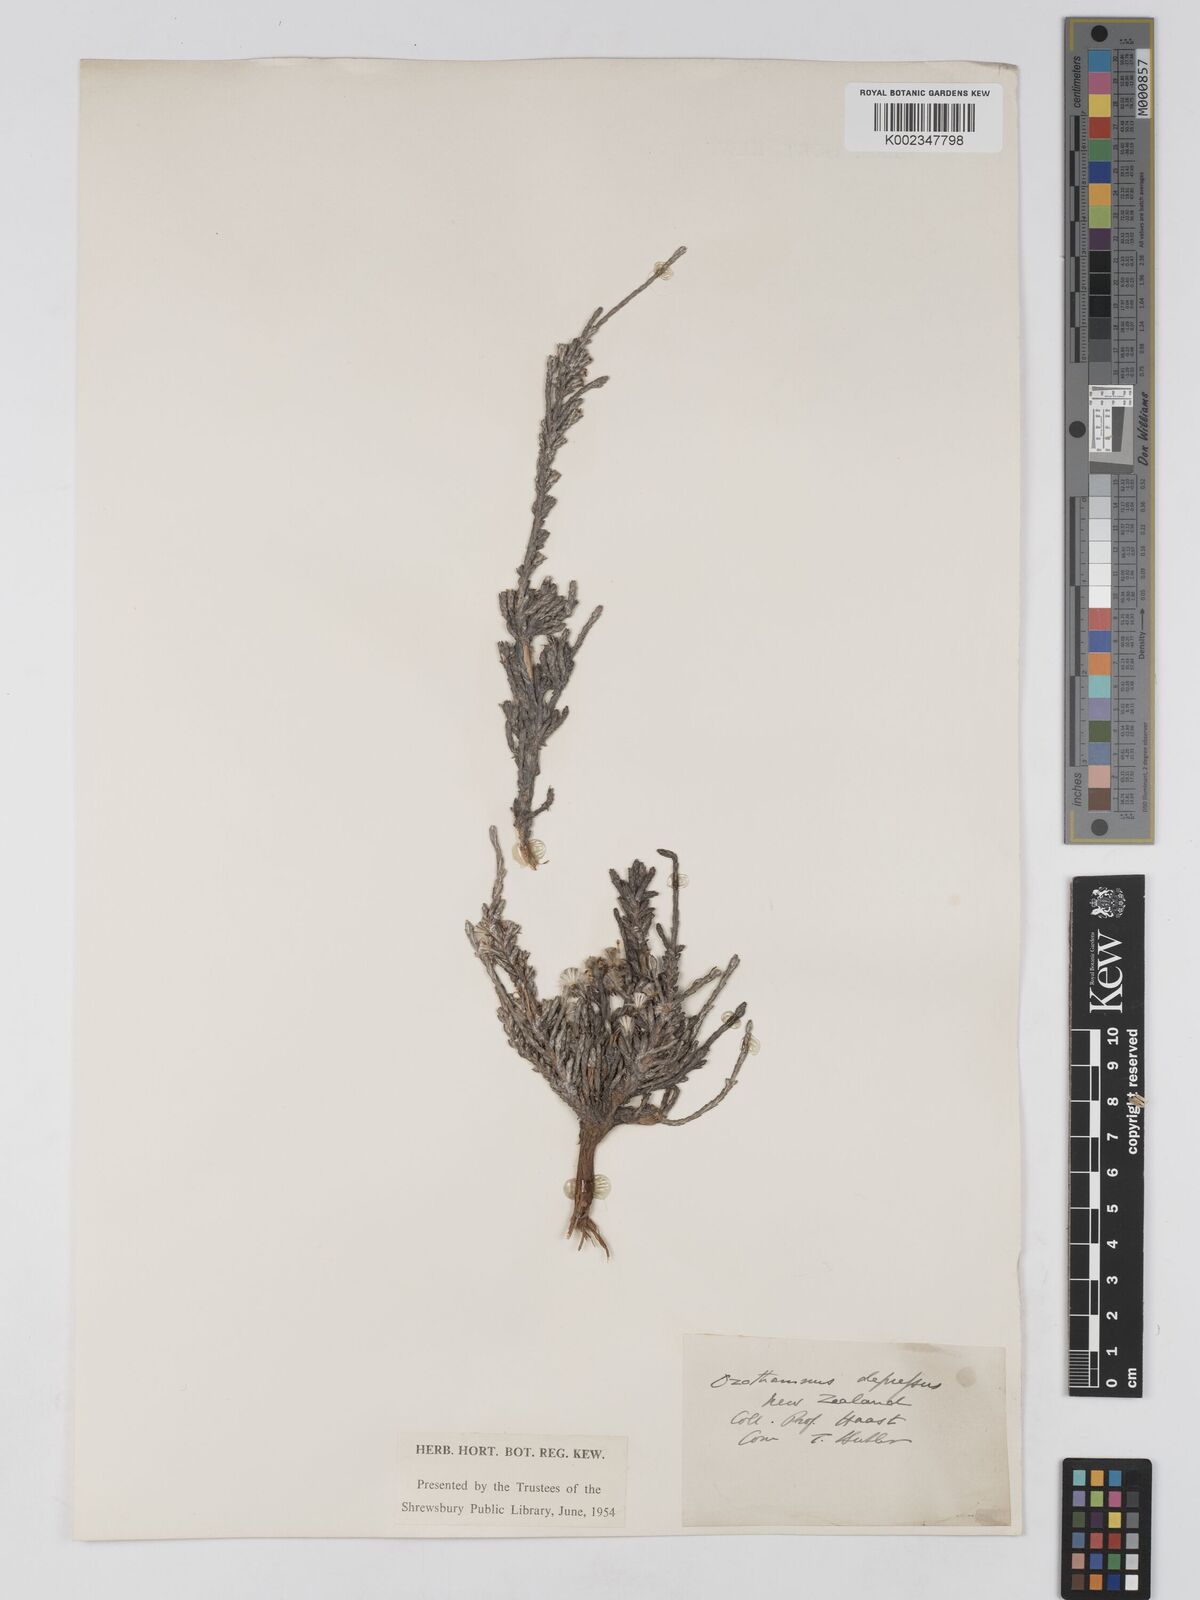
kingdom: Plantae
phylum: Tracheophyta
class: Magnoliopsida
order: Asterales
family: Asteraceae
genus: Ozothamnus
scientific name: Ozothamnus depressus
